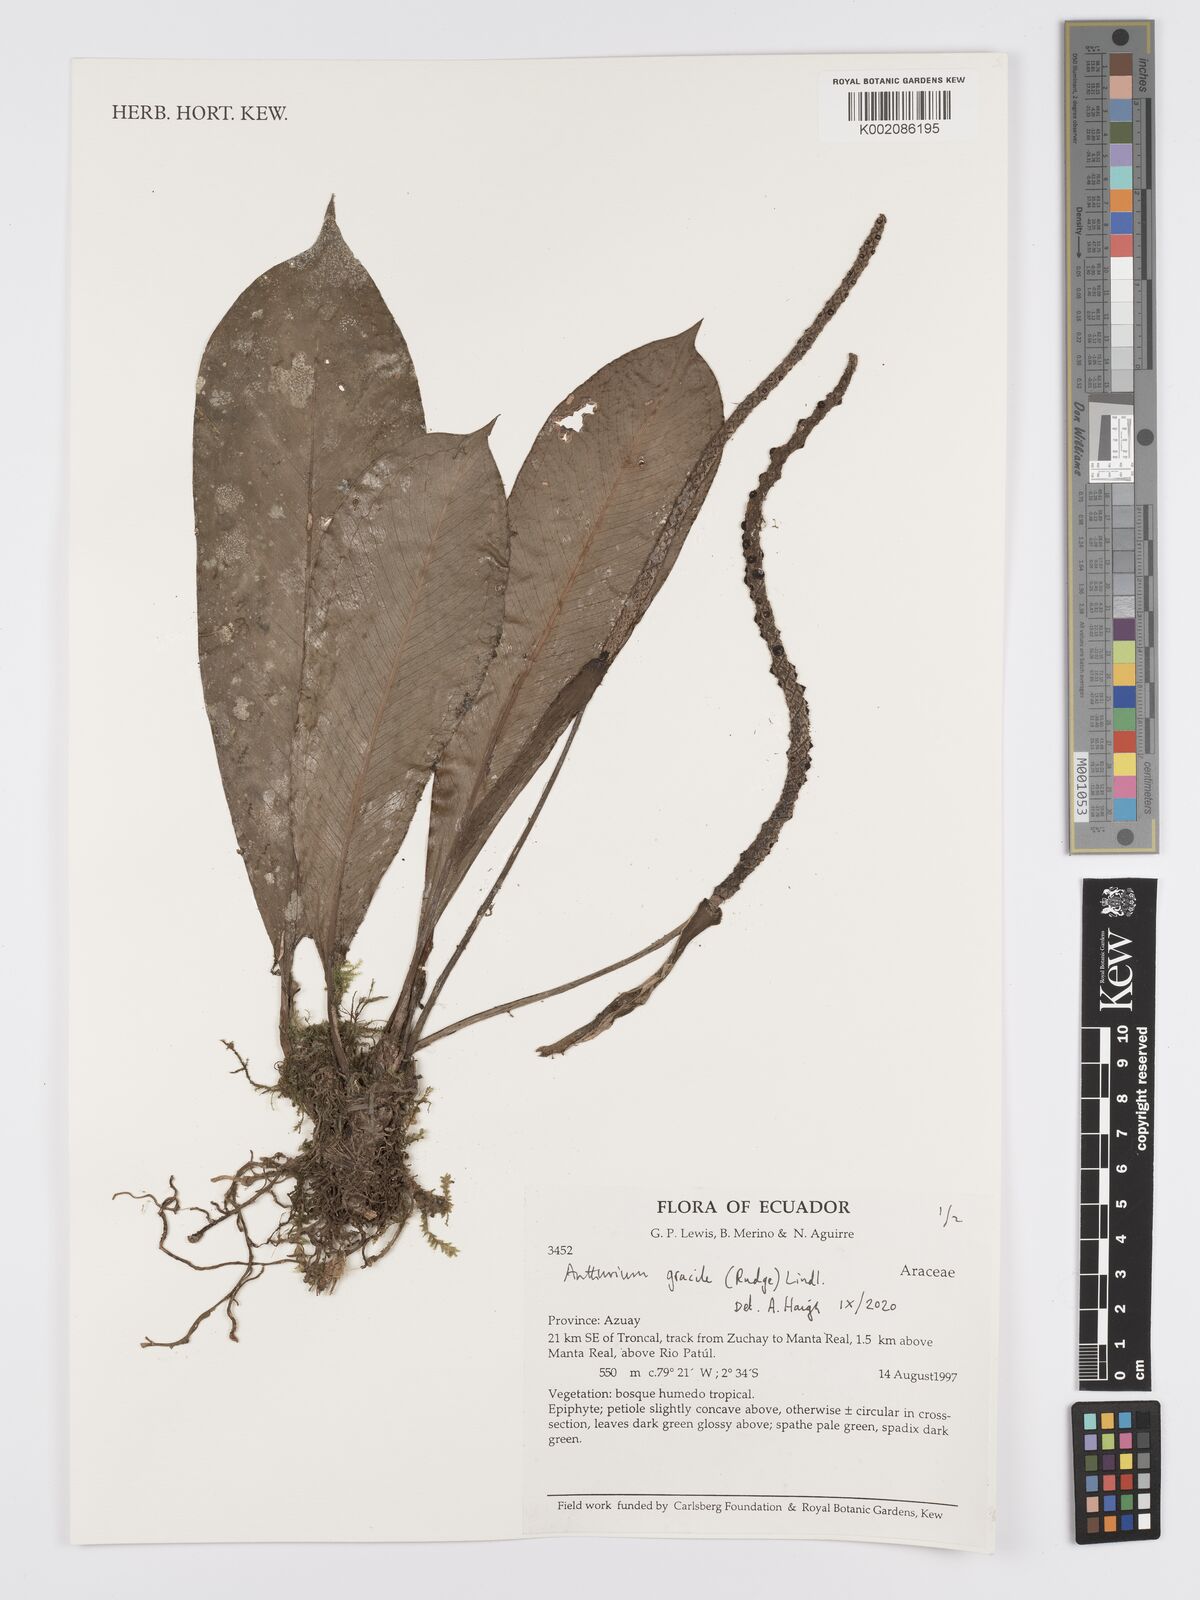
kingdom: Plantae
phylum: Tracheophyta
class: Liliopsida
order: Alismatales
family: Araceae
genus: Anthurium
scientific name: Anthurium gracile
